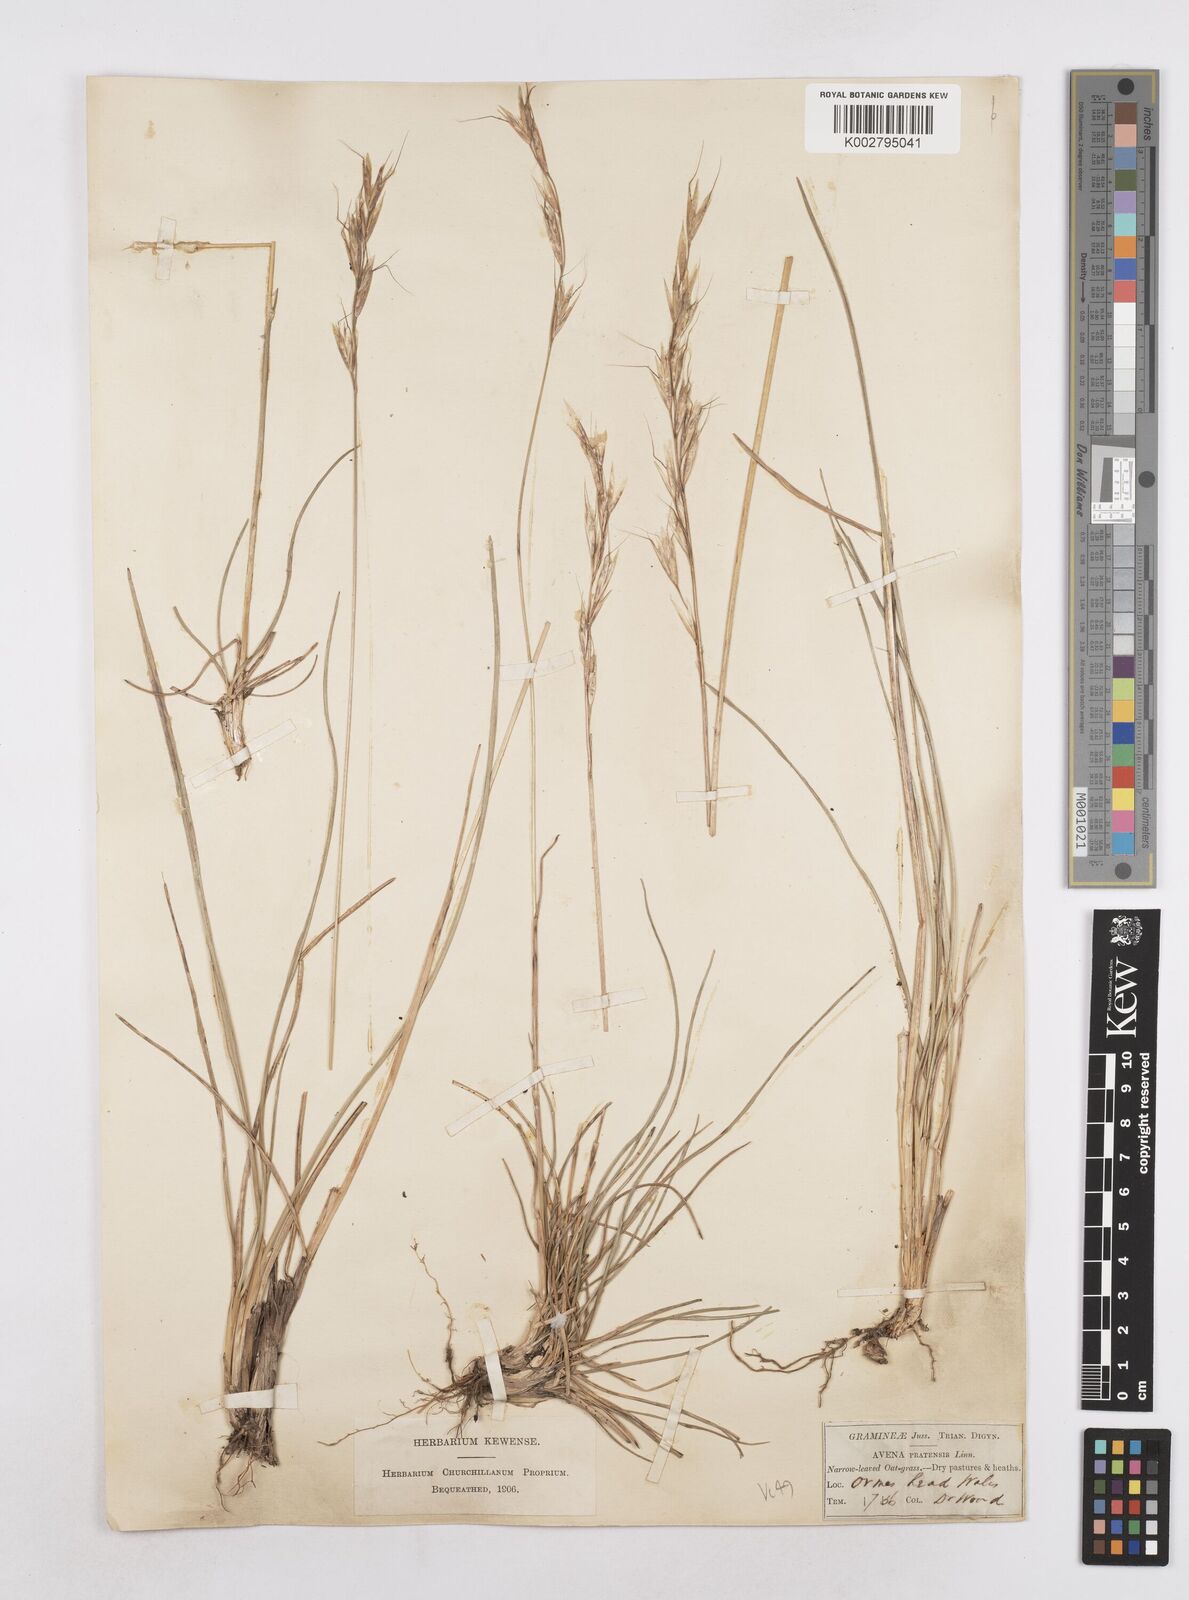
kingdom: Plantae
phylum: Tracheophyta
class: Liliopsida
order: Poales
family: Poaceae
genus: Helictochloa
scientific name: Helictochloa pratensis
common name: Meadow oat grass
